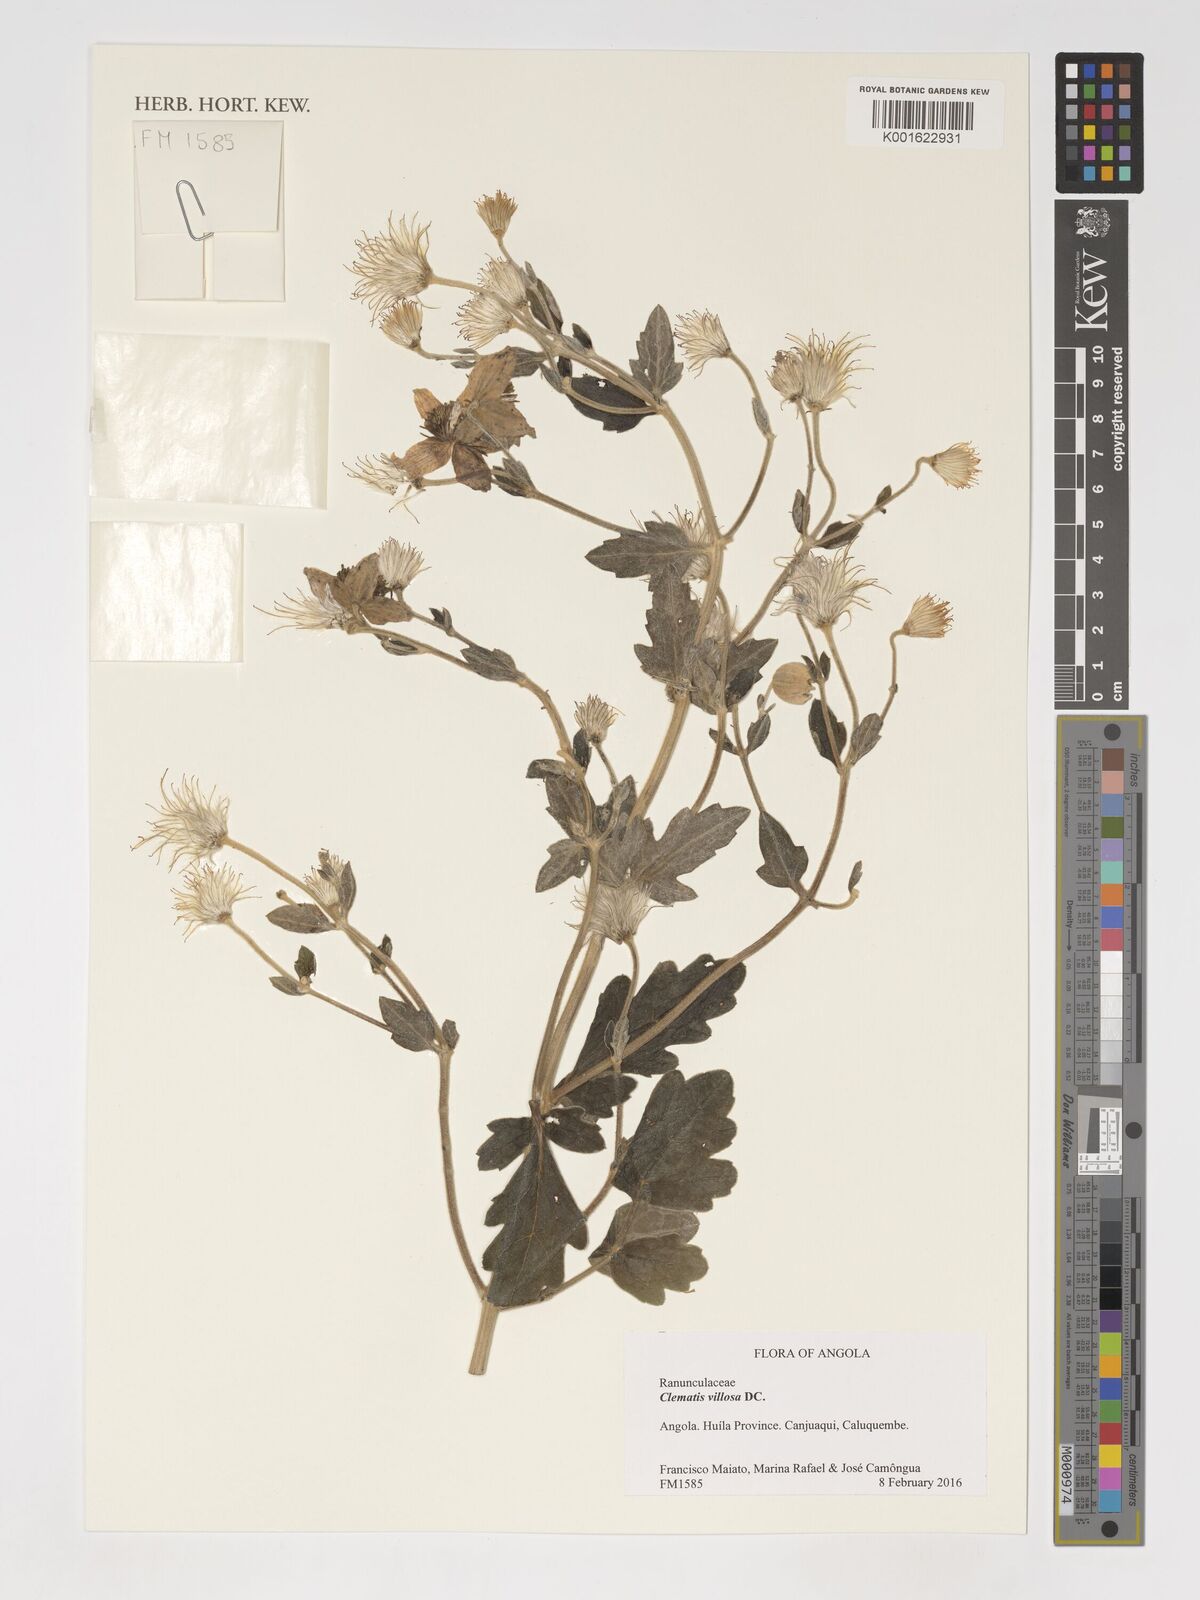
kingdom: Plantae
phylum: Tracheophyta
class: Magnoliopsida
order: Ranunculales
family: Ranunculaceae
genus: Clematis
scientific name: Clematis villosa
